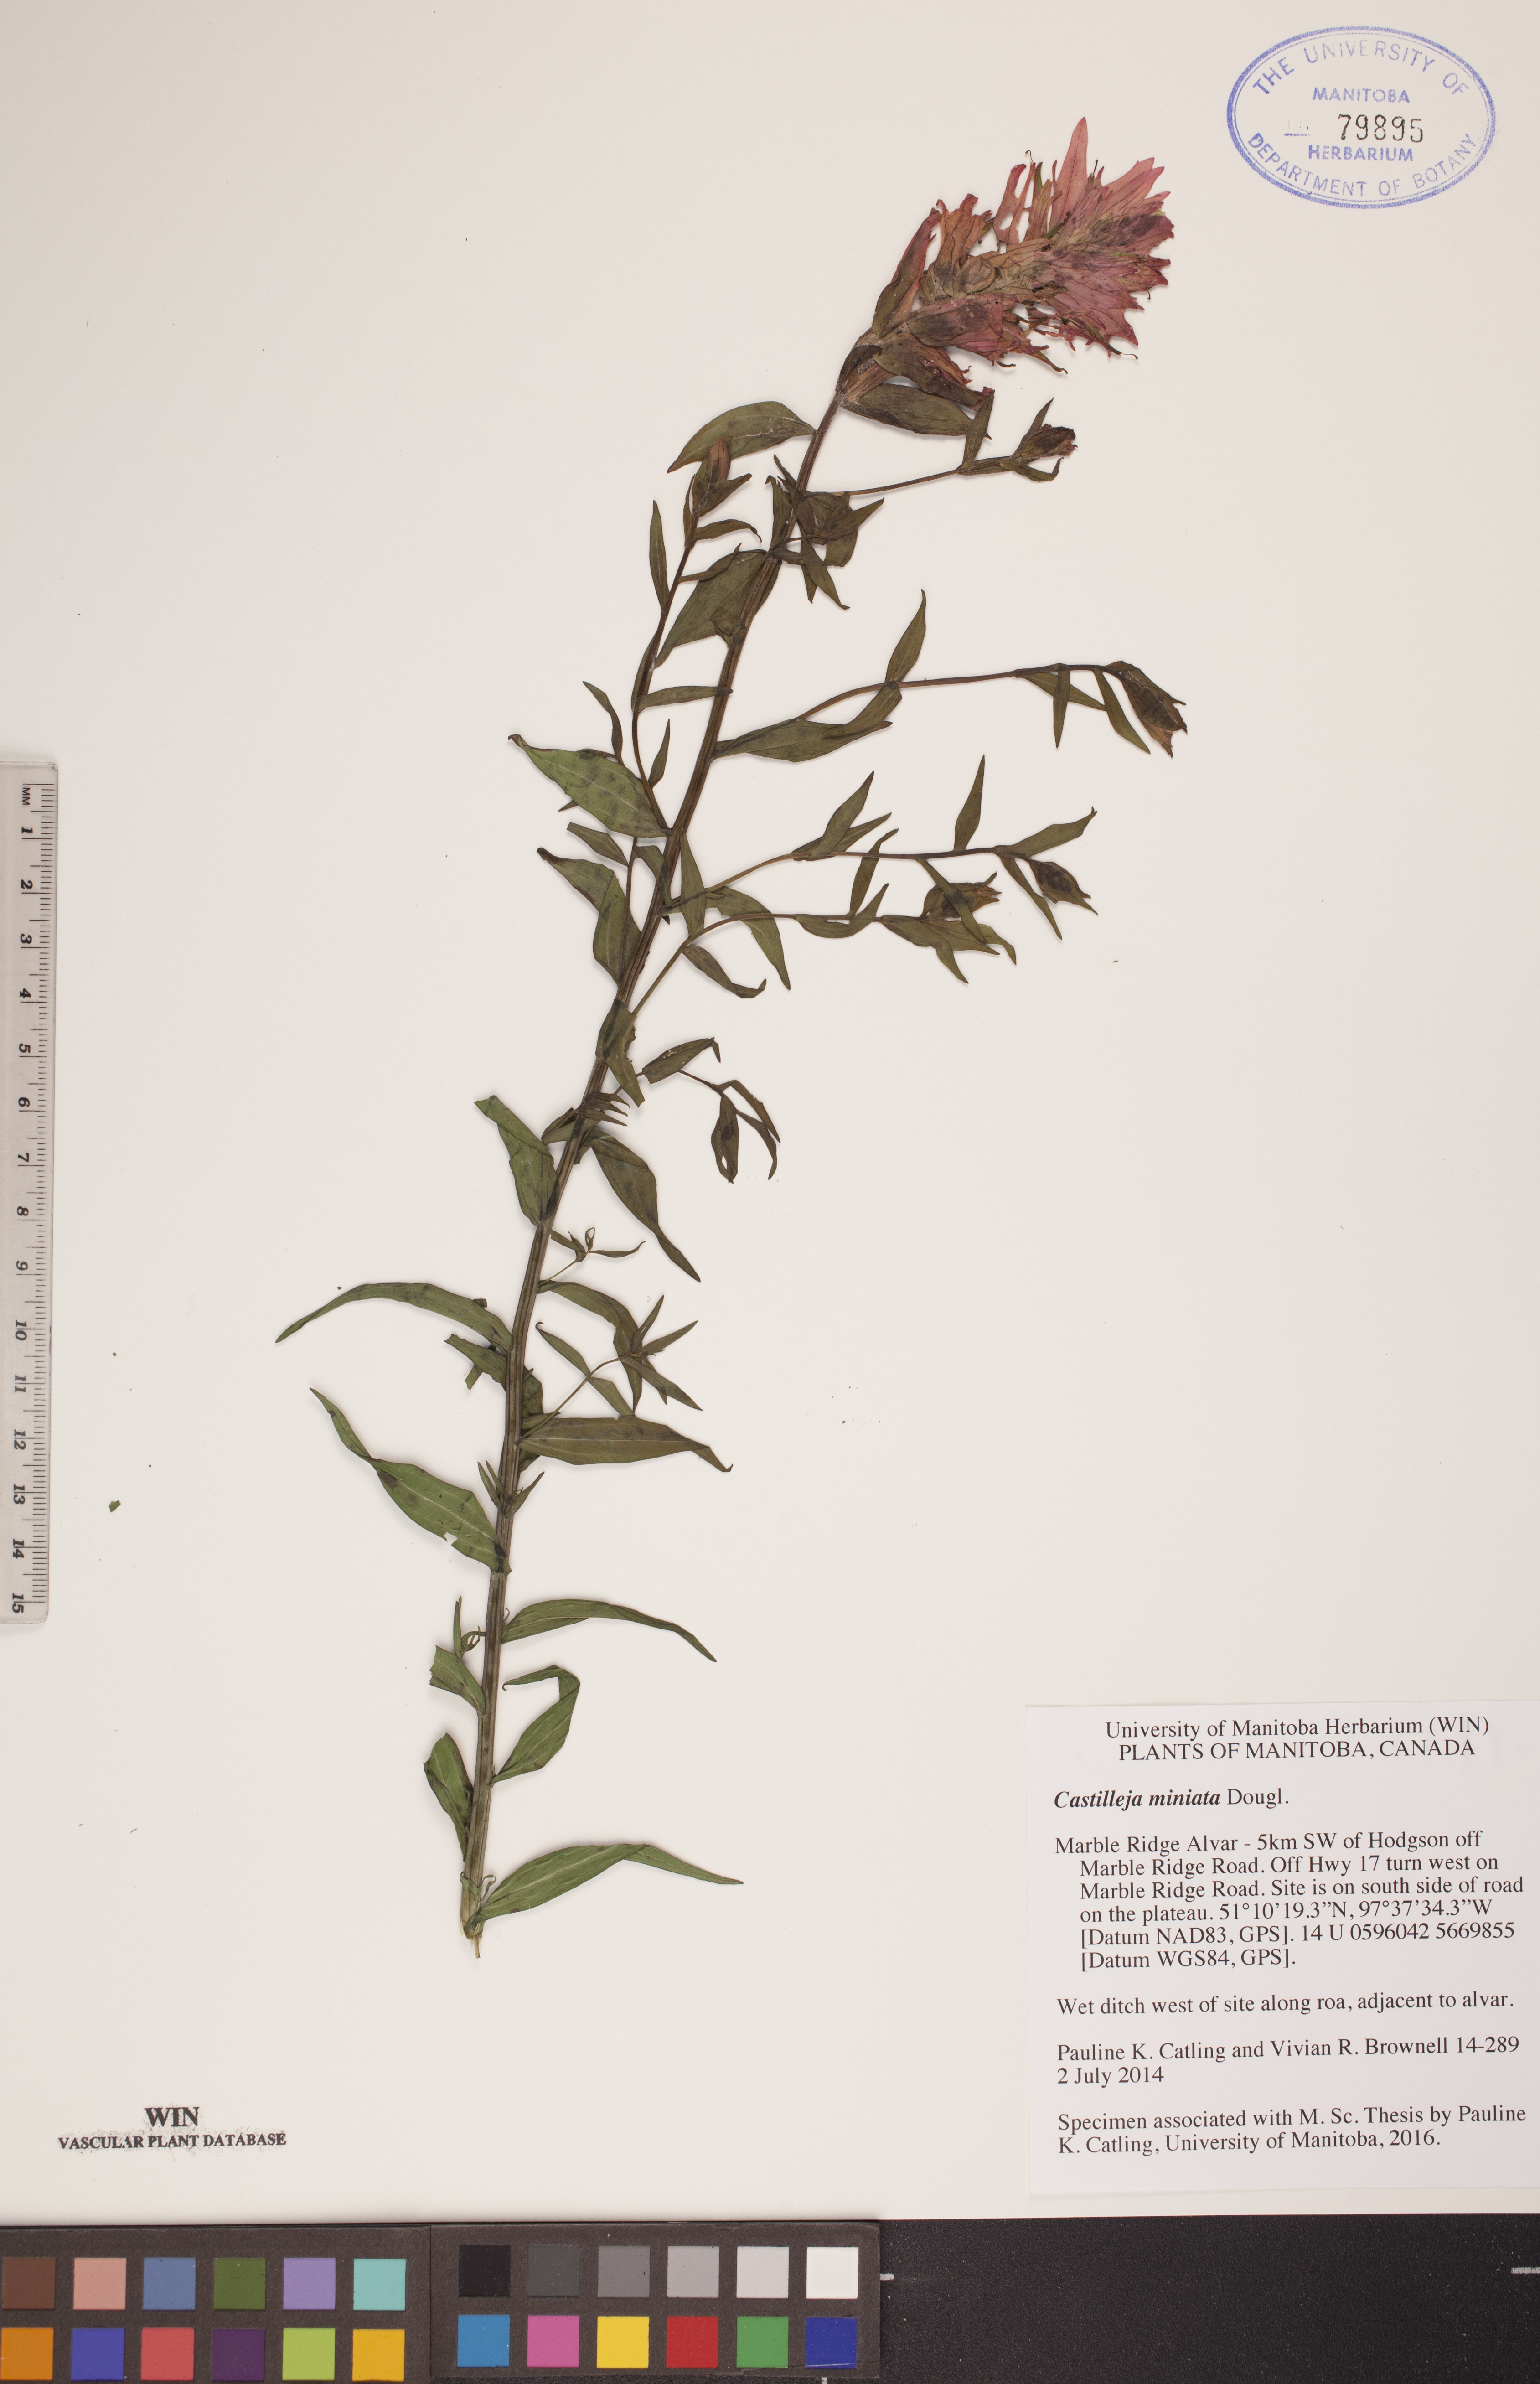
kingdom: Plantae
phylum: Tracheophyta
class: Magnoliopsida
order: Lamiales
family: Orobanchaceae
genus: Castilleja
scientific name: Castilleja miniata
